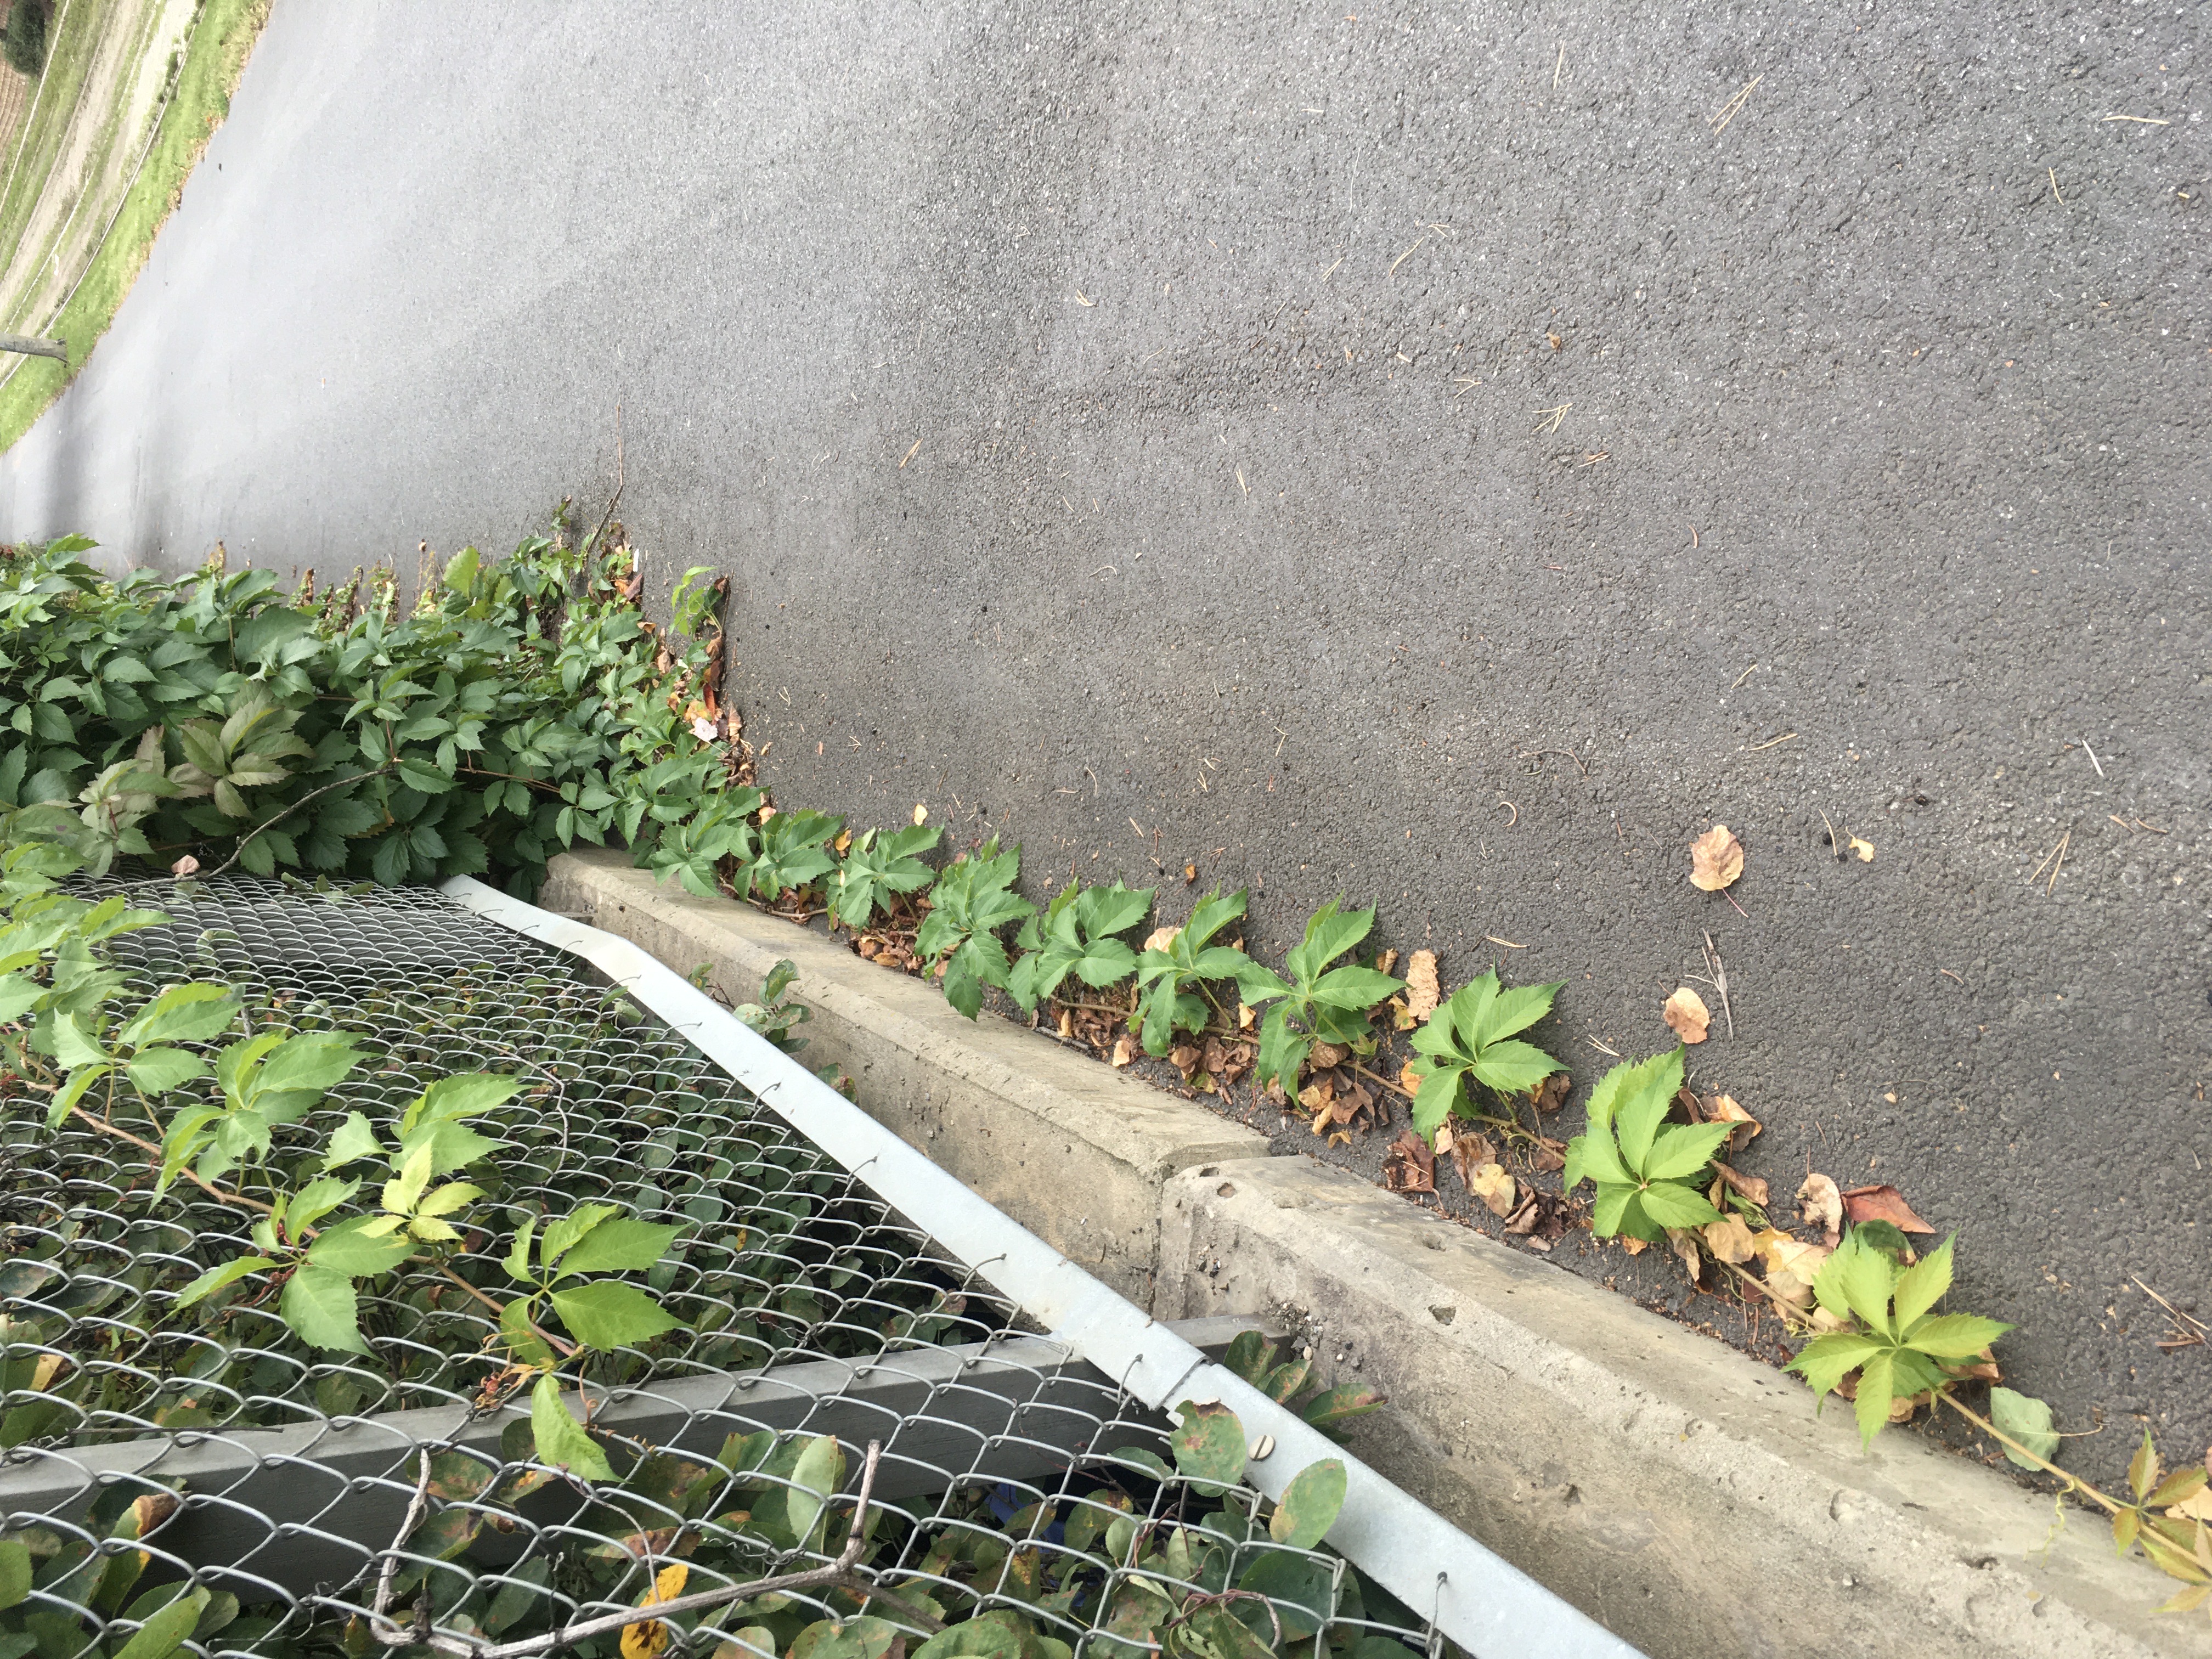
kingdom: Plantae
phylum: Tracheophyta
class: Magnoliopsida
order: Vitales
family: Vitaceae
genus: Parthenocissus
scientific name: Parthenocissus quinquefolia
